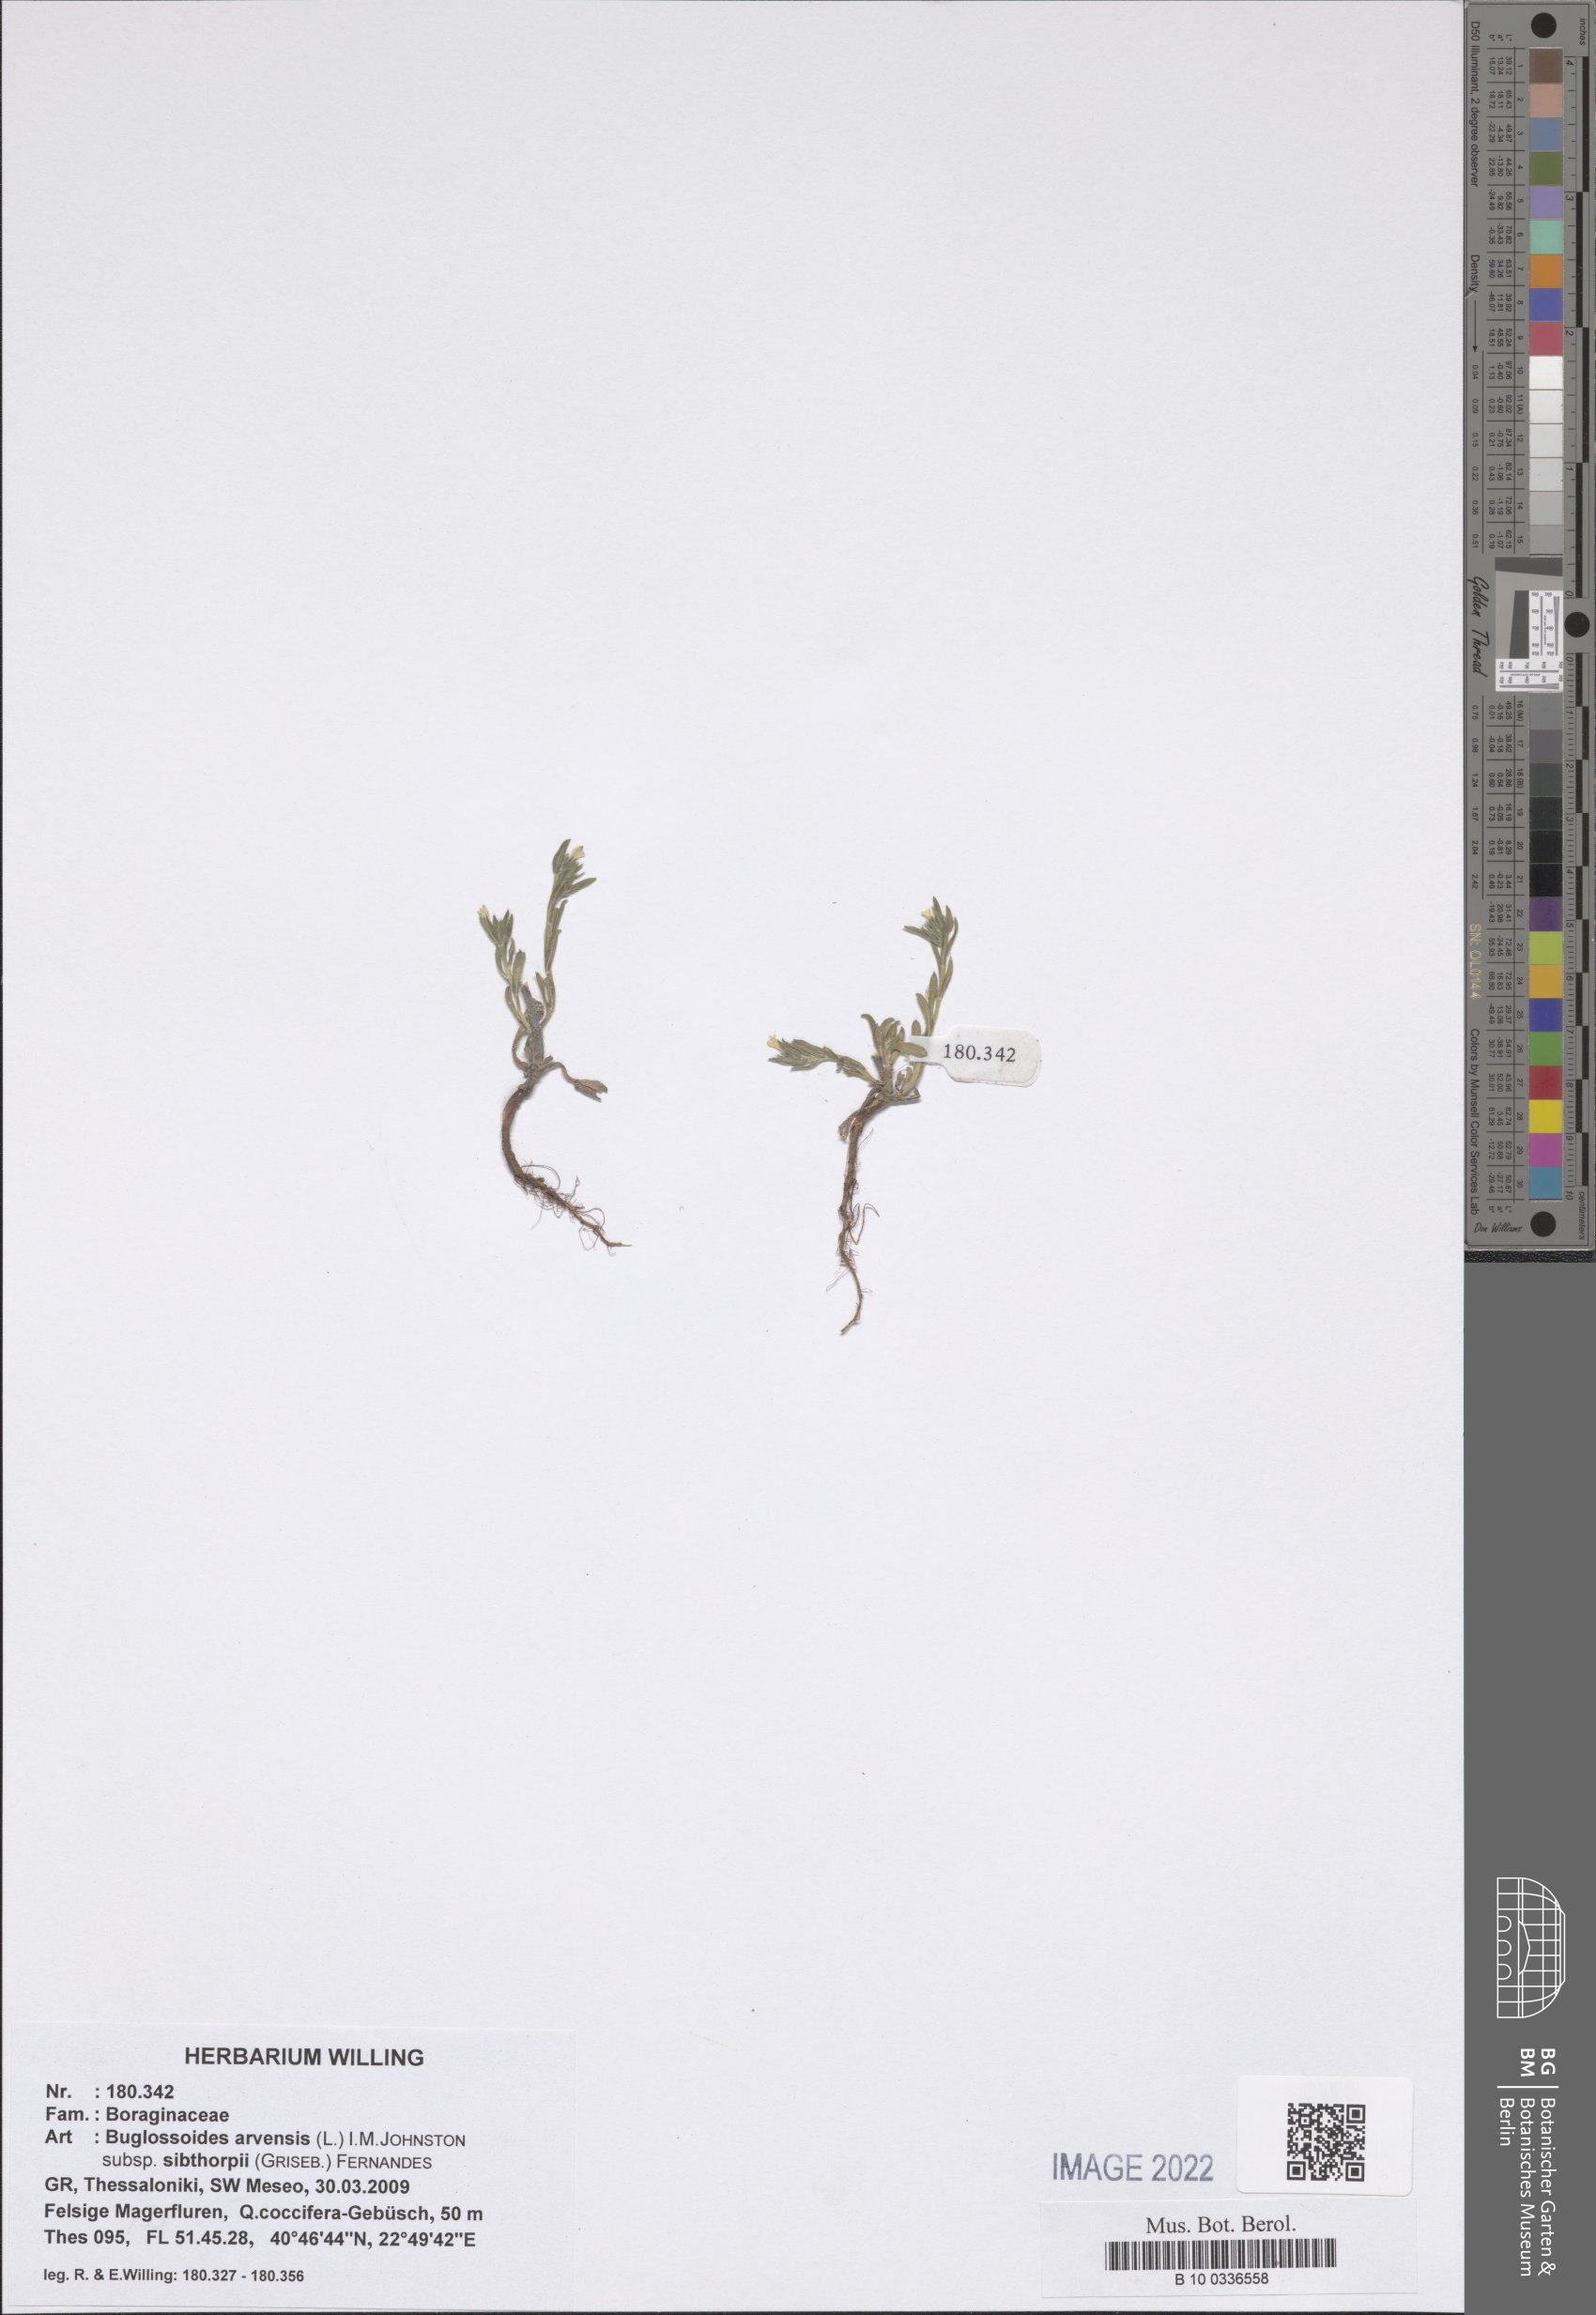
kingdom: Plantae
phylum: Tracheophyta
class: Magnoliopsida
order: Boraginales
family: Boraginaceae
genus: Buglossoides
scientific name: Buglossoides arvensis
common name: Corn gromwell
